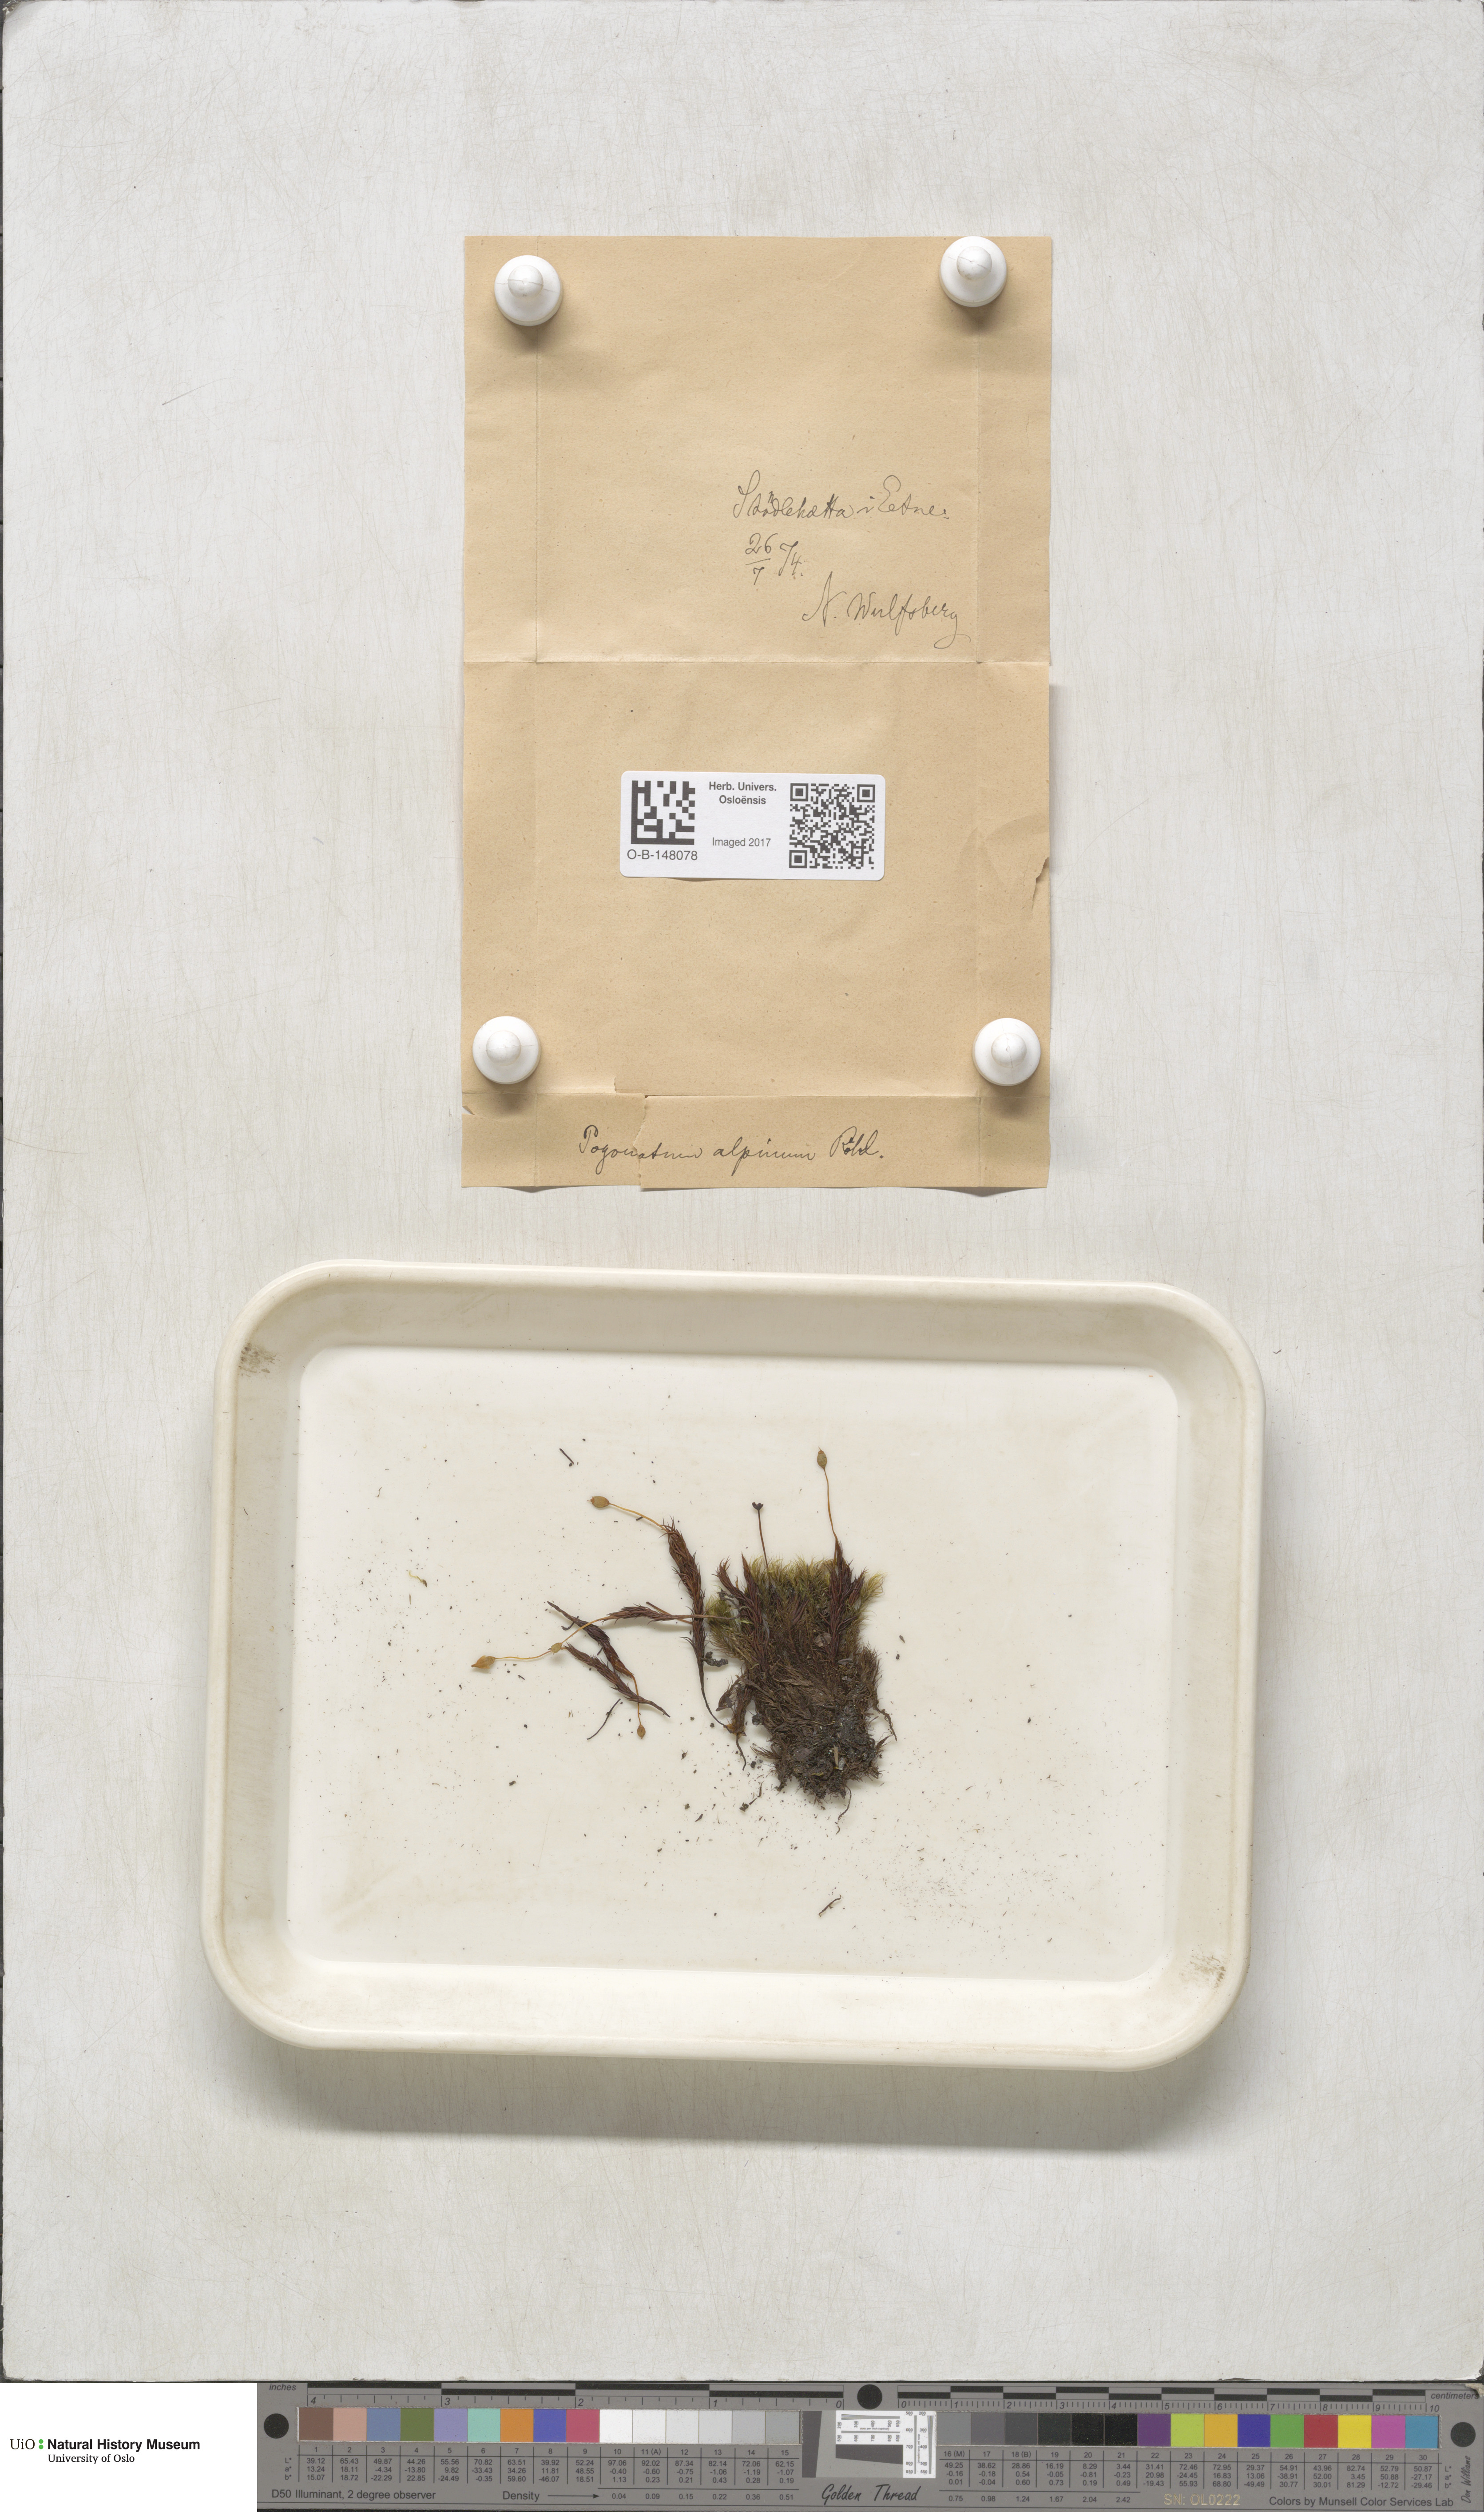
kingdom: Plantae
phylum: Bryophyta
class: Polytrichopsida
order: Polytrichales
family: Polytrichaceae
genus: Polytrichastrum
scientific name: Polytrichastrum alpinum
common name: Alpine haircap
